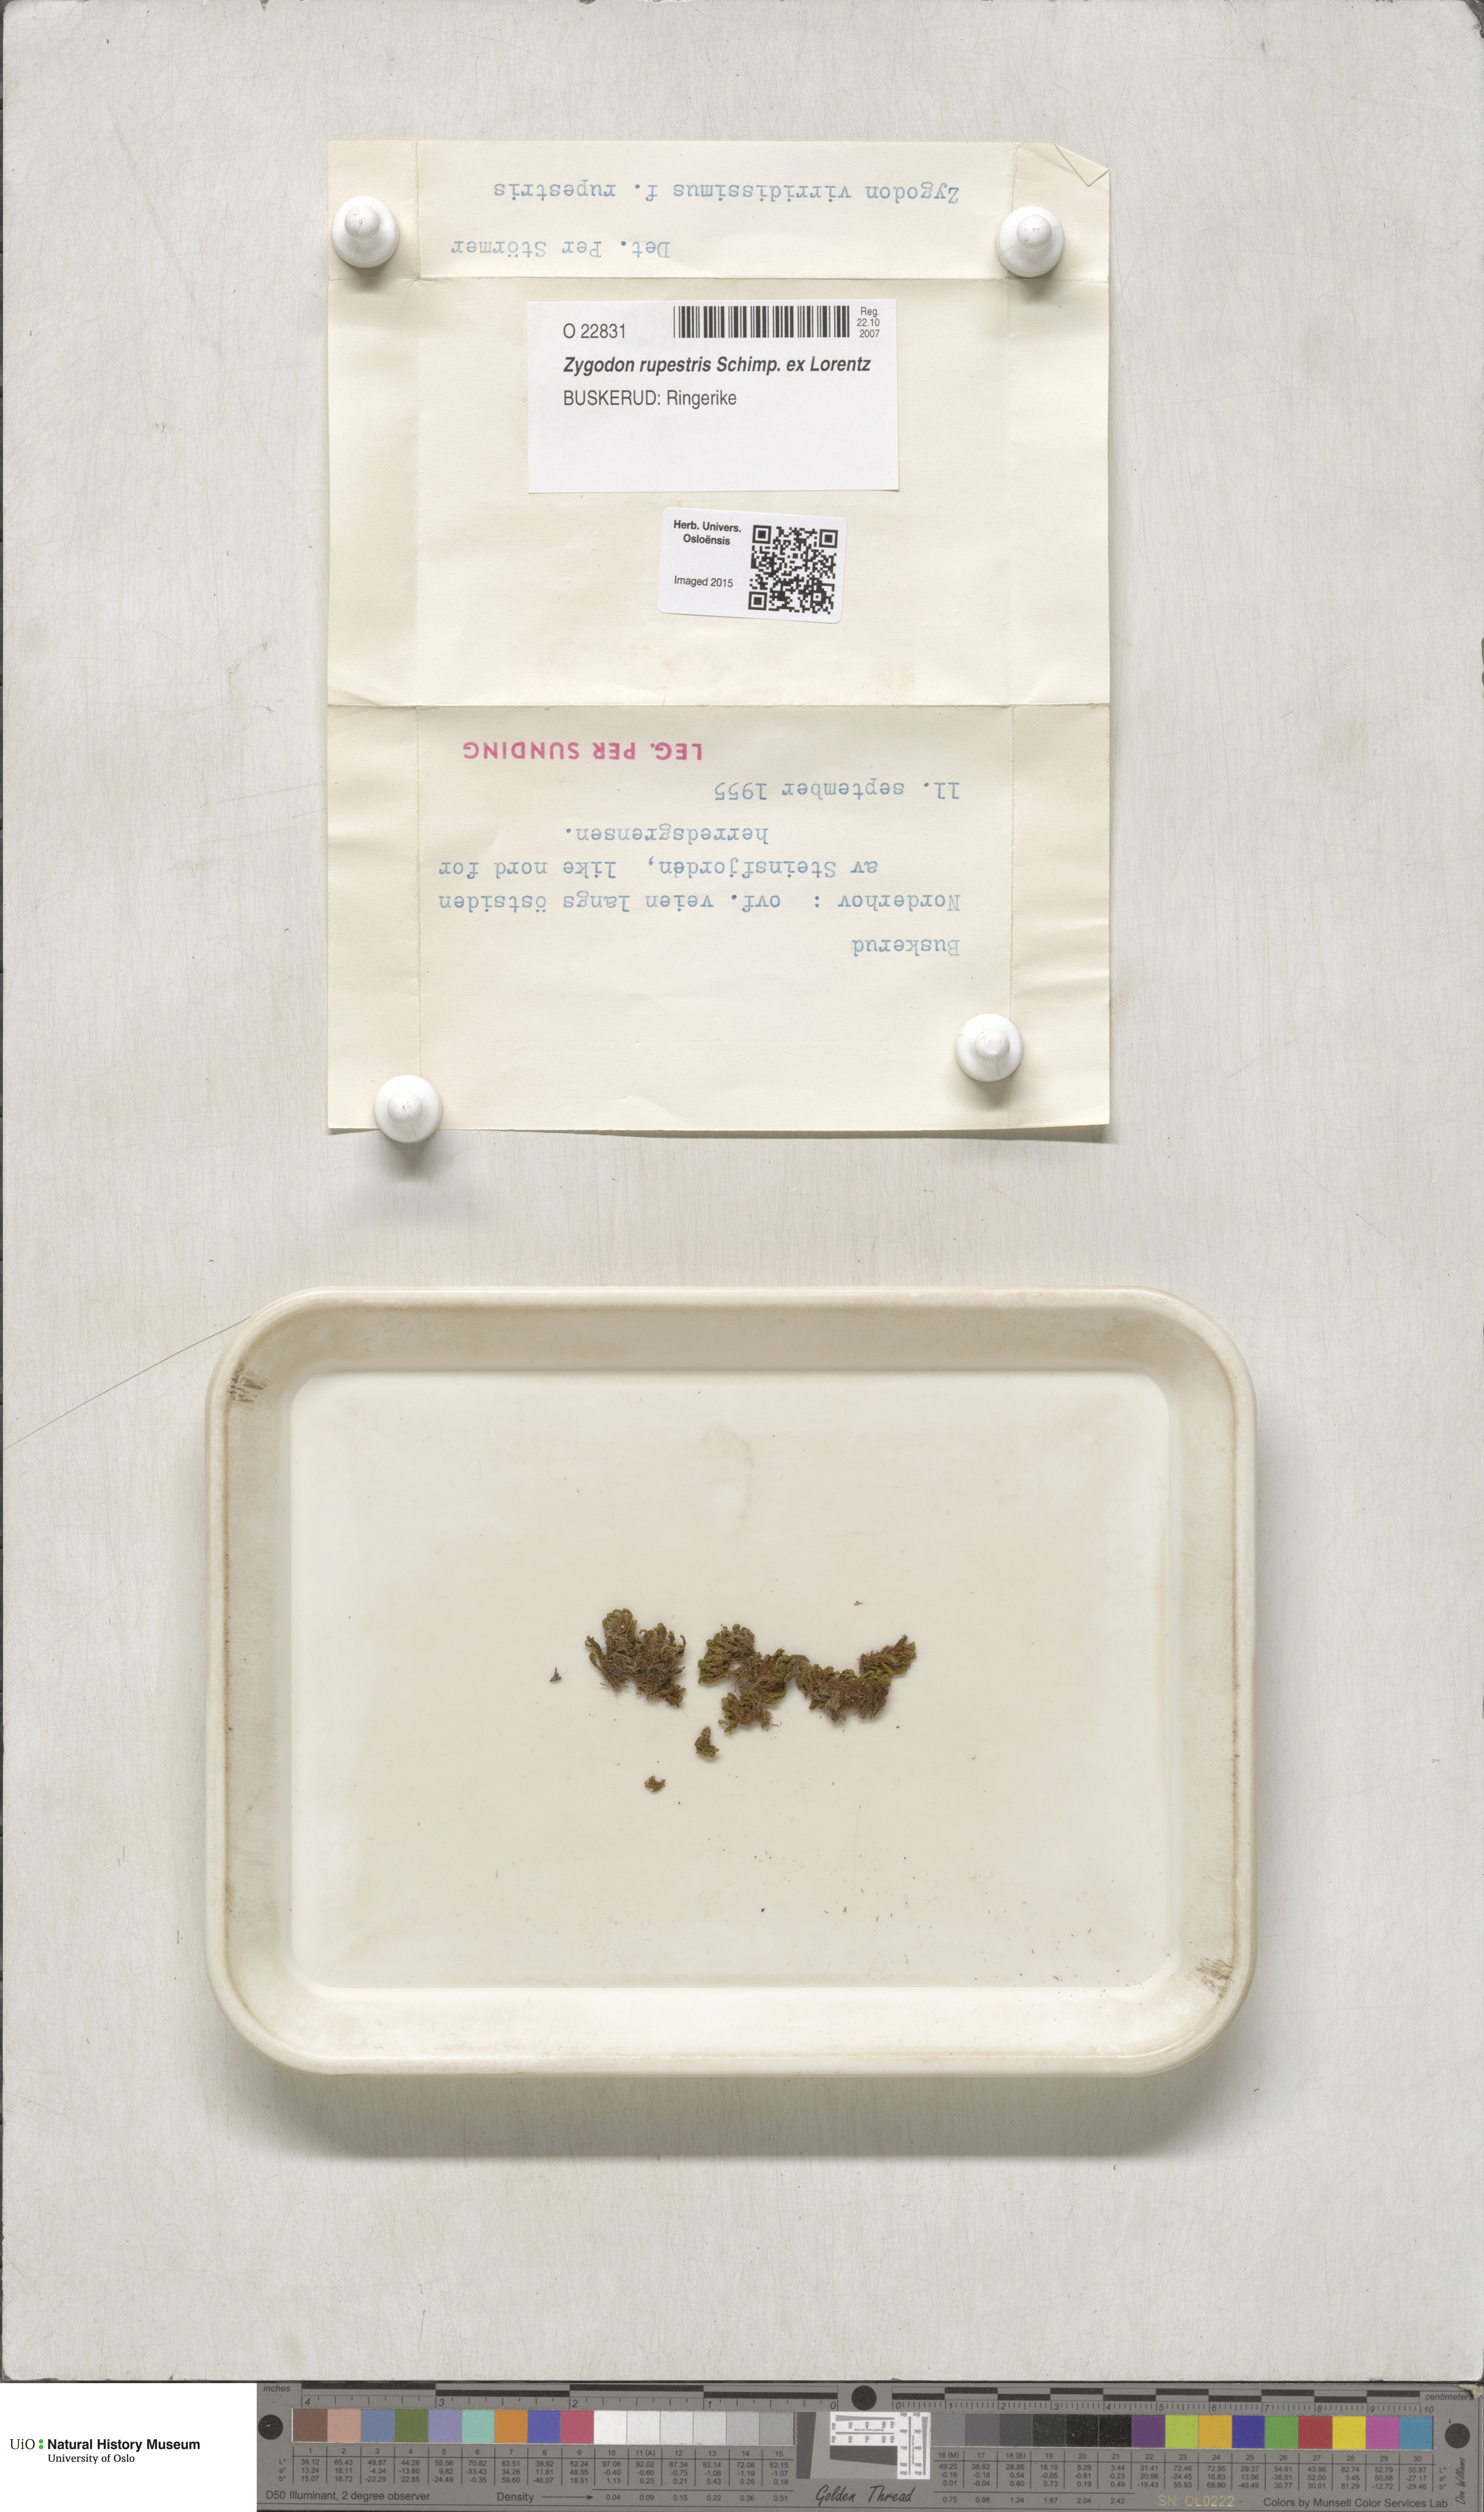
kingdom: Plantae
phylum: Bryophyta
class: Bryopsida
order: Orthotrichales
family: Orthotrichaceae
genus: Zygodon
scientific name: Zygodon rupestris
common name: Park yoke moss
